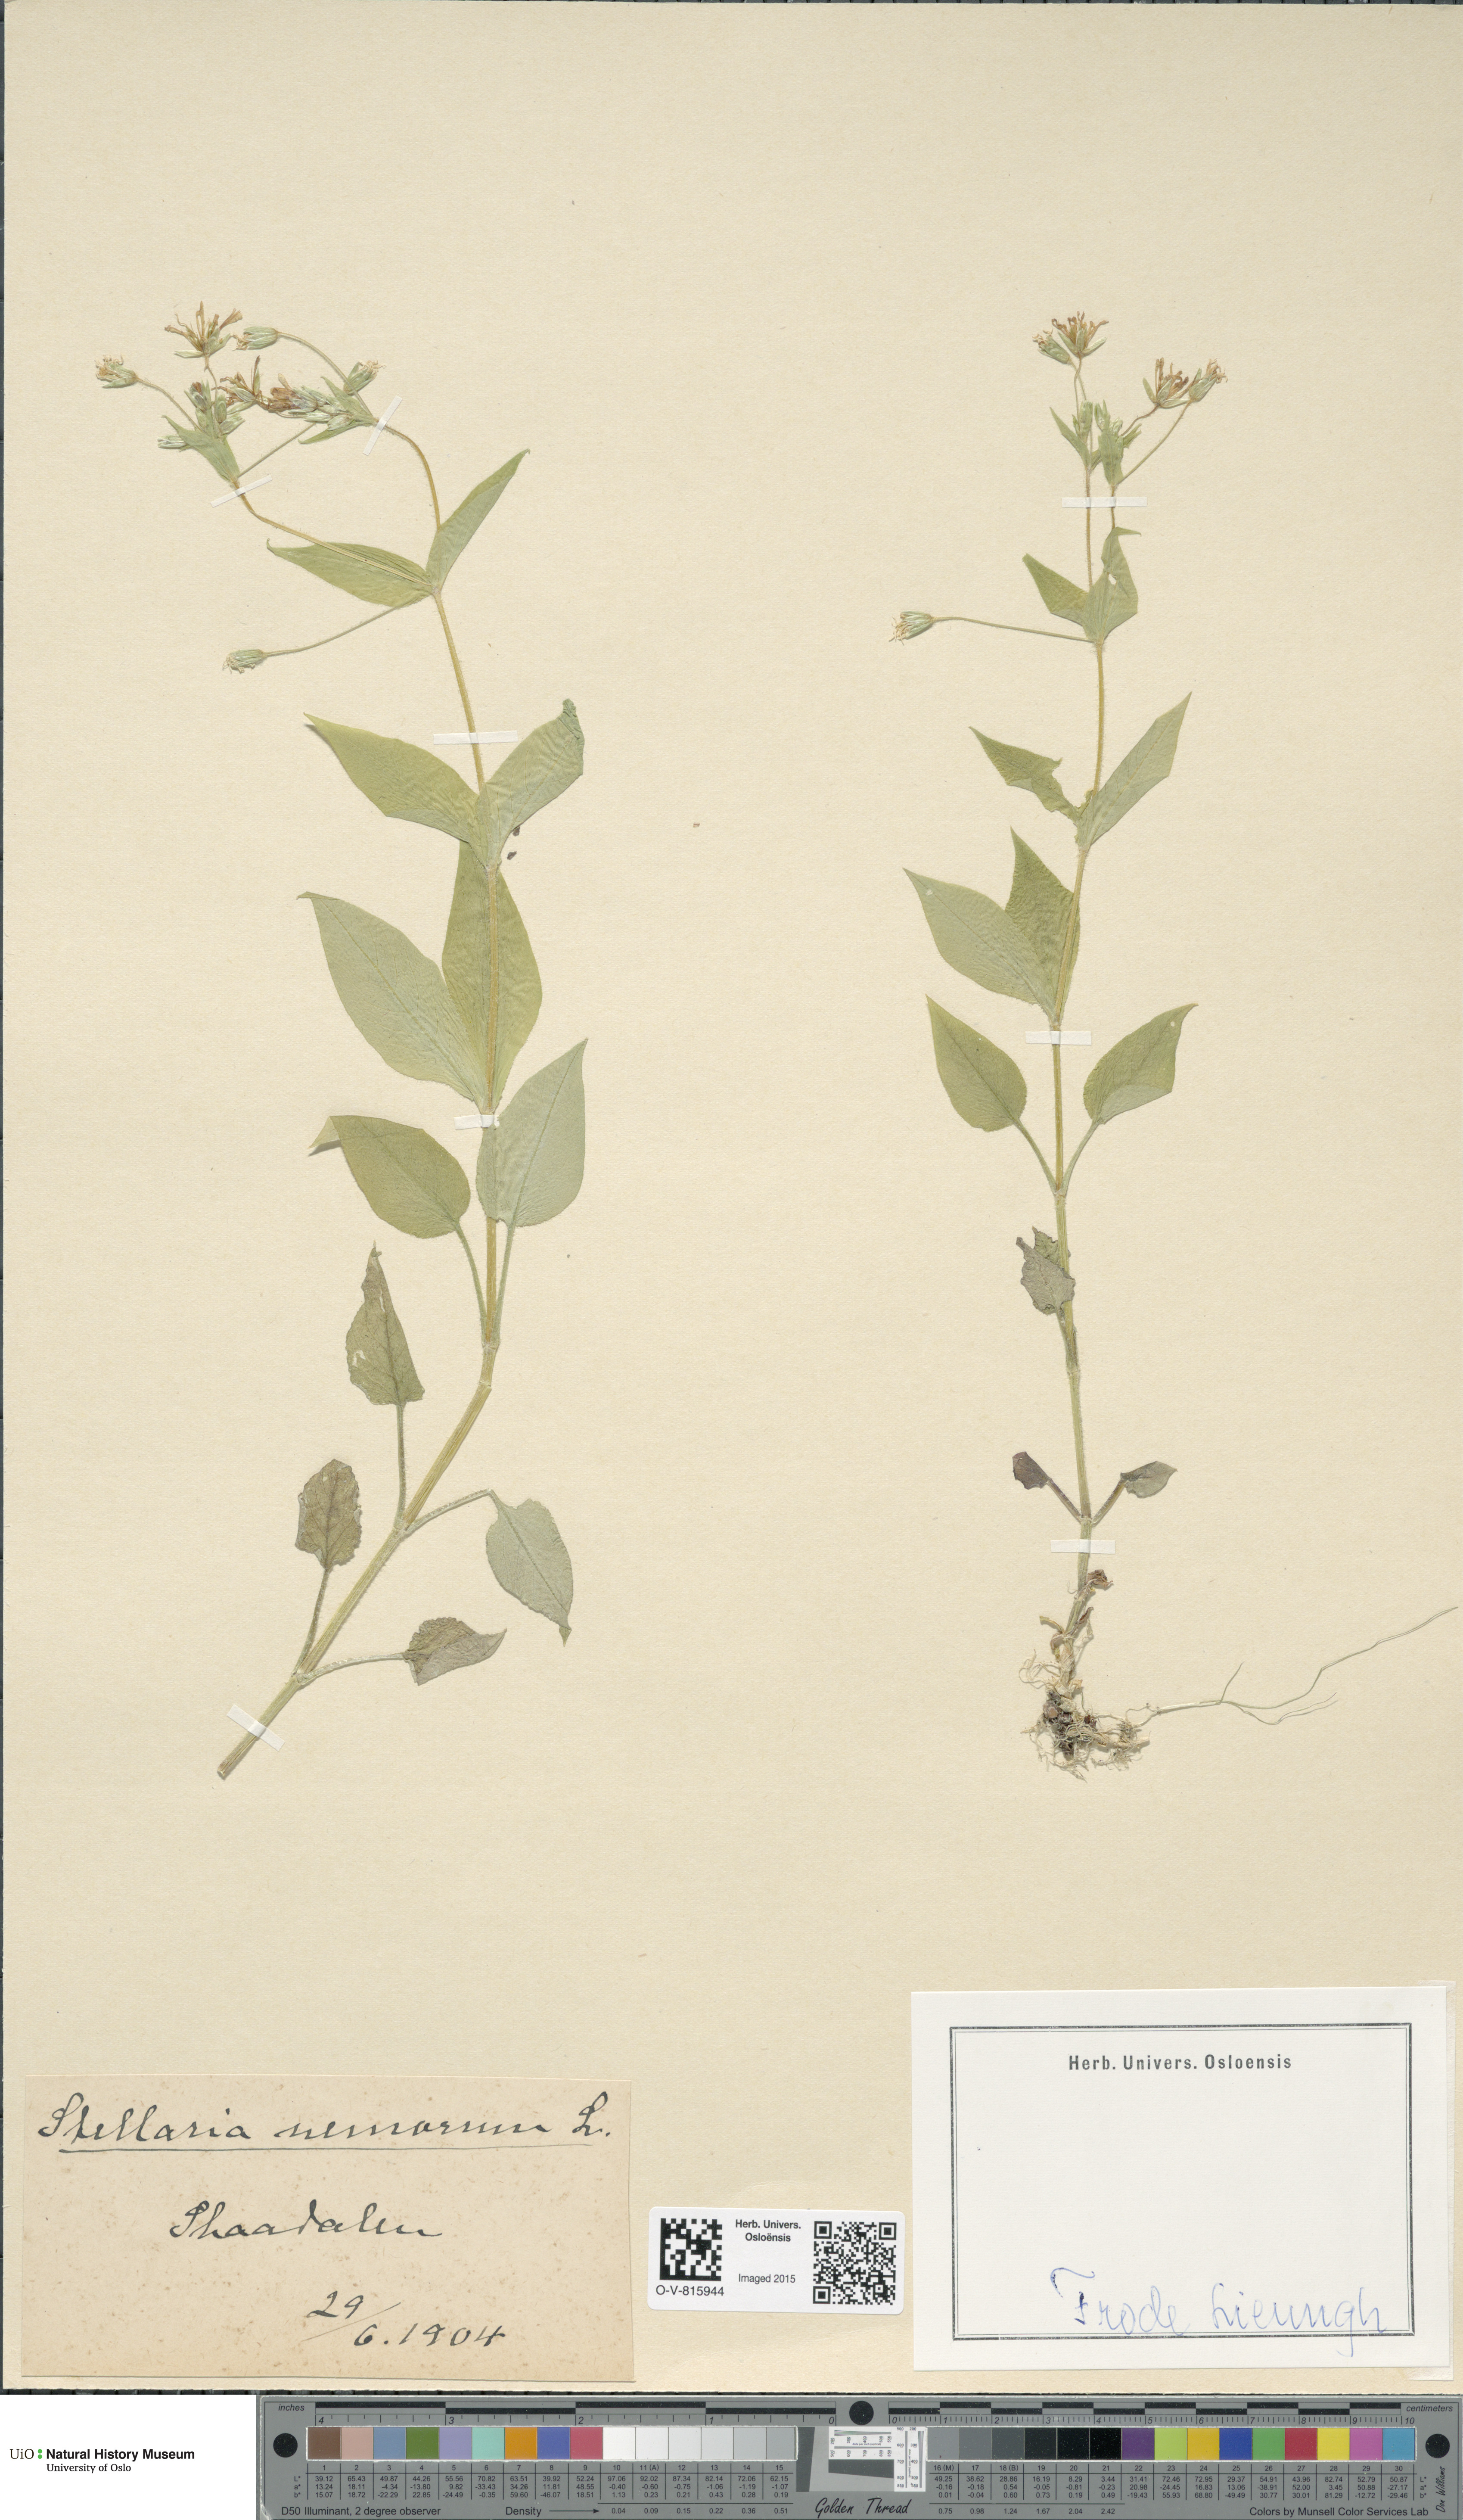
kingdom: Plantae
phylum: Tracheophyta
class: Magnoliopsida
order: Caryophyllales
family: Caryophyllaceae
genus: Stellaria
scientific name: Stellaria nemorum
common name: Wood stitchwort
